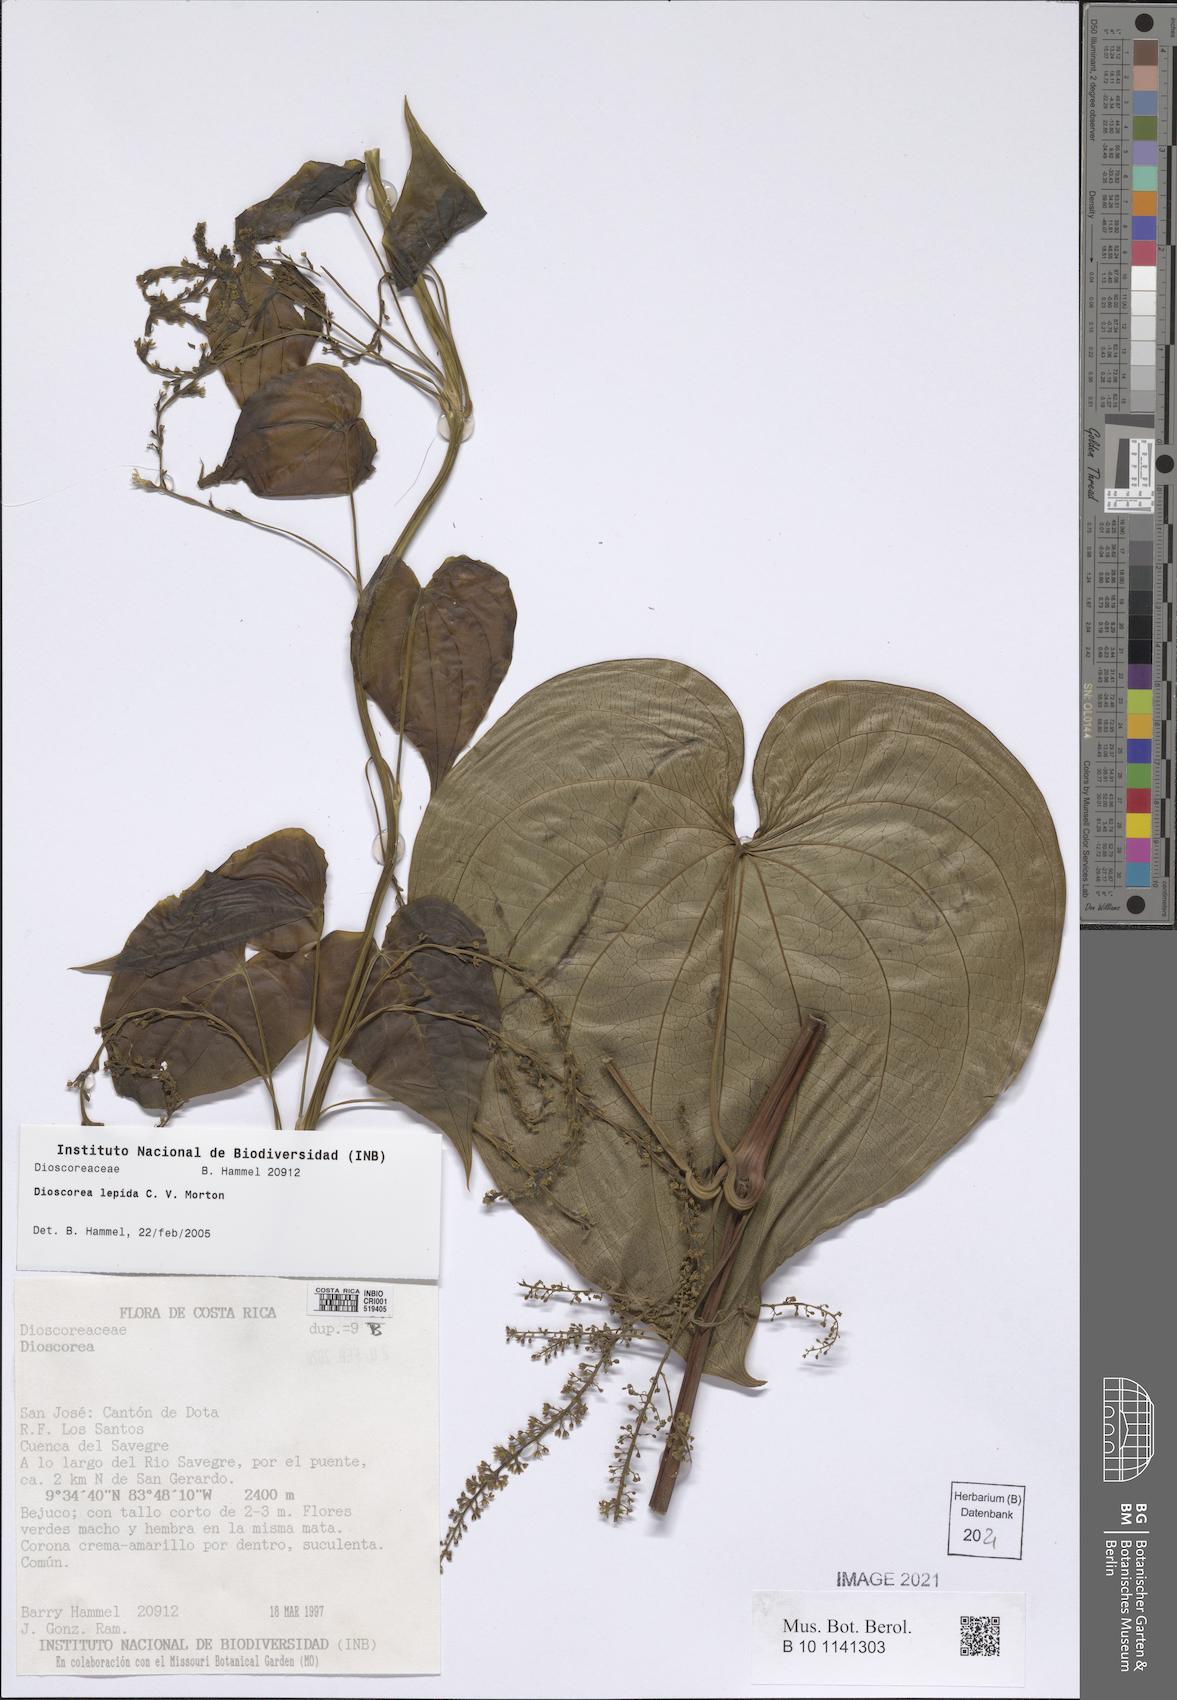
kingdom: Plantae
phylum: Tracheophyta
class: Liliopsida
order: Dioscoreales
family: Dioscoreaceae
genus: Dioscorea
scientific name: Dioscorea lepida
